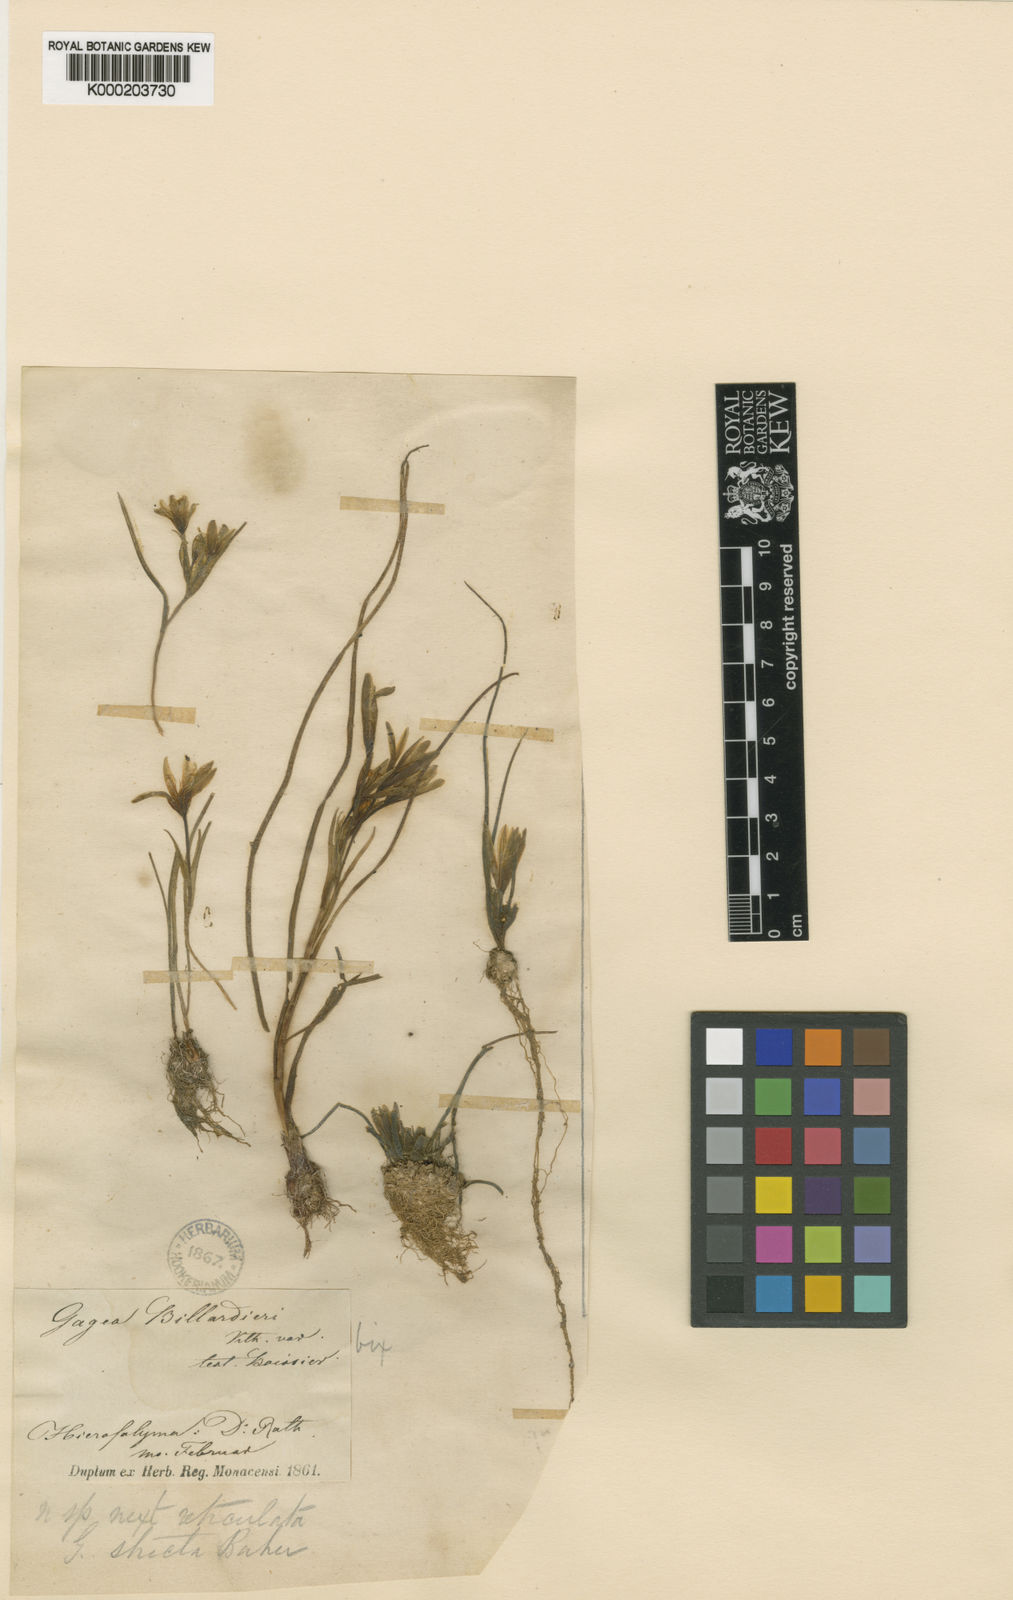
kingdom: Plantae
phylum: Tracheophyta
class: Liliopsida
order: Liliales
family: Liliaceae
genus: Gagea
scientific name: Gagea
